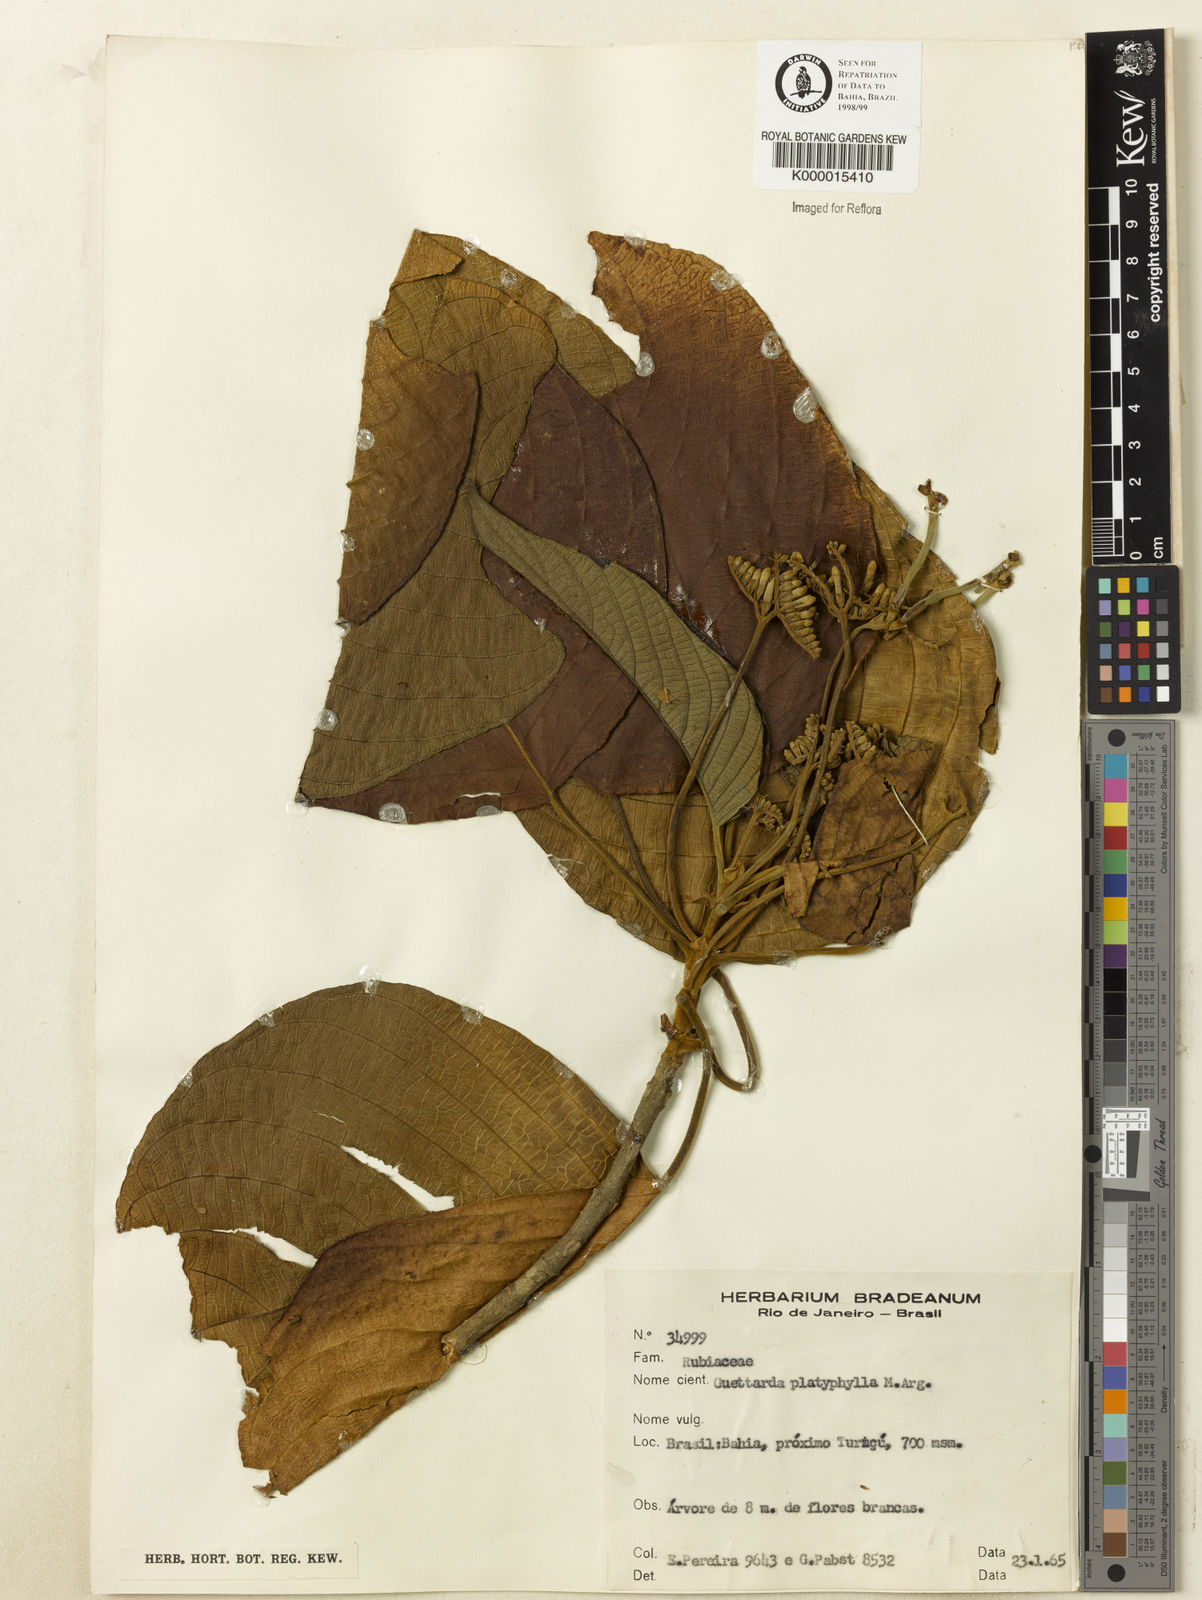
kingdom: Plantae
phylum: Tracheophyta
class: Magnoliopsida
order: Gentianales
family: Rubiaceae
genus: Guettarda
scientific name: Guettarda viburnoides
